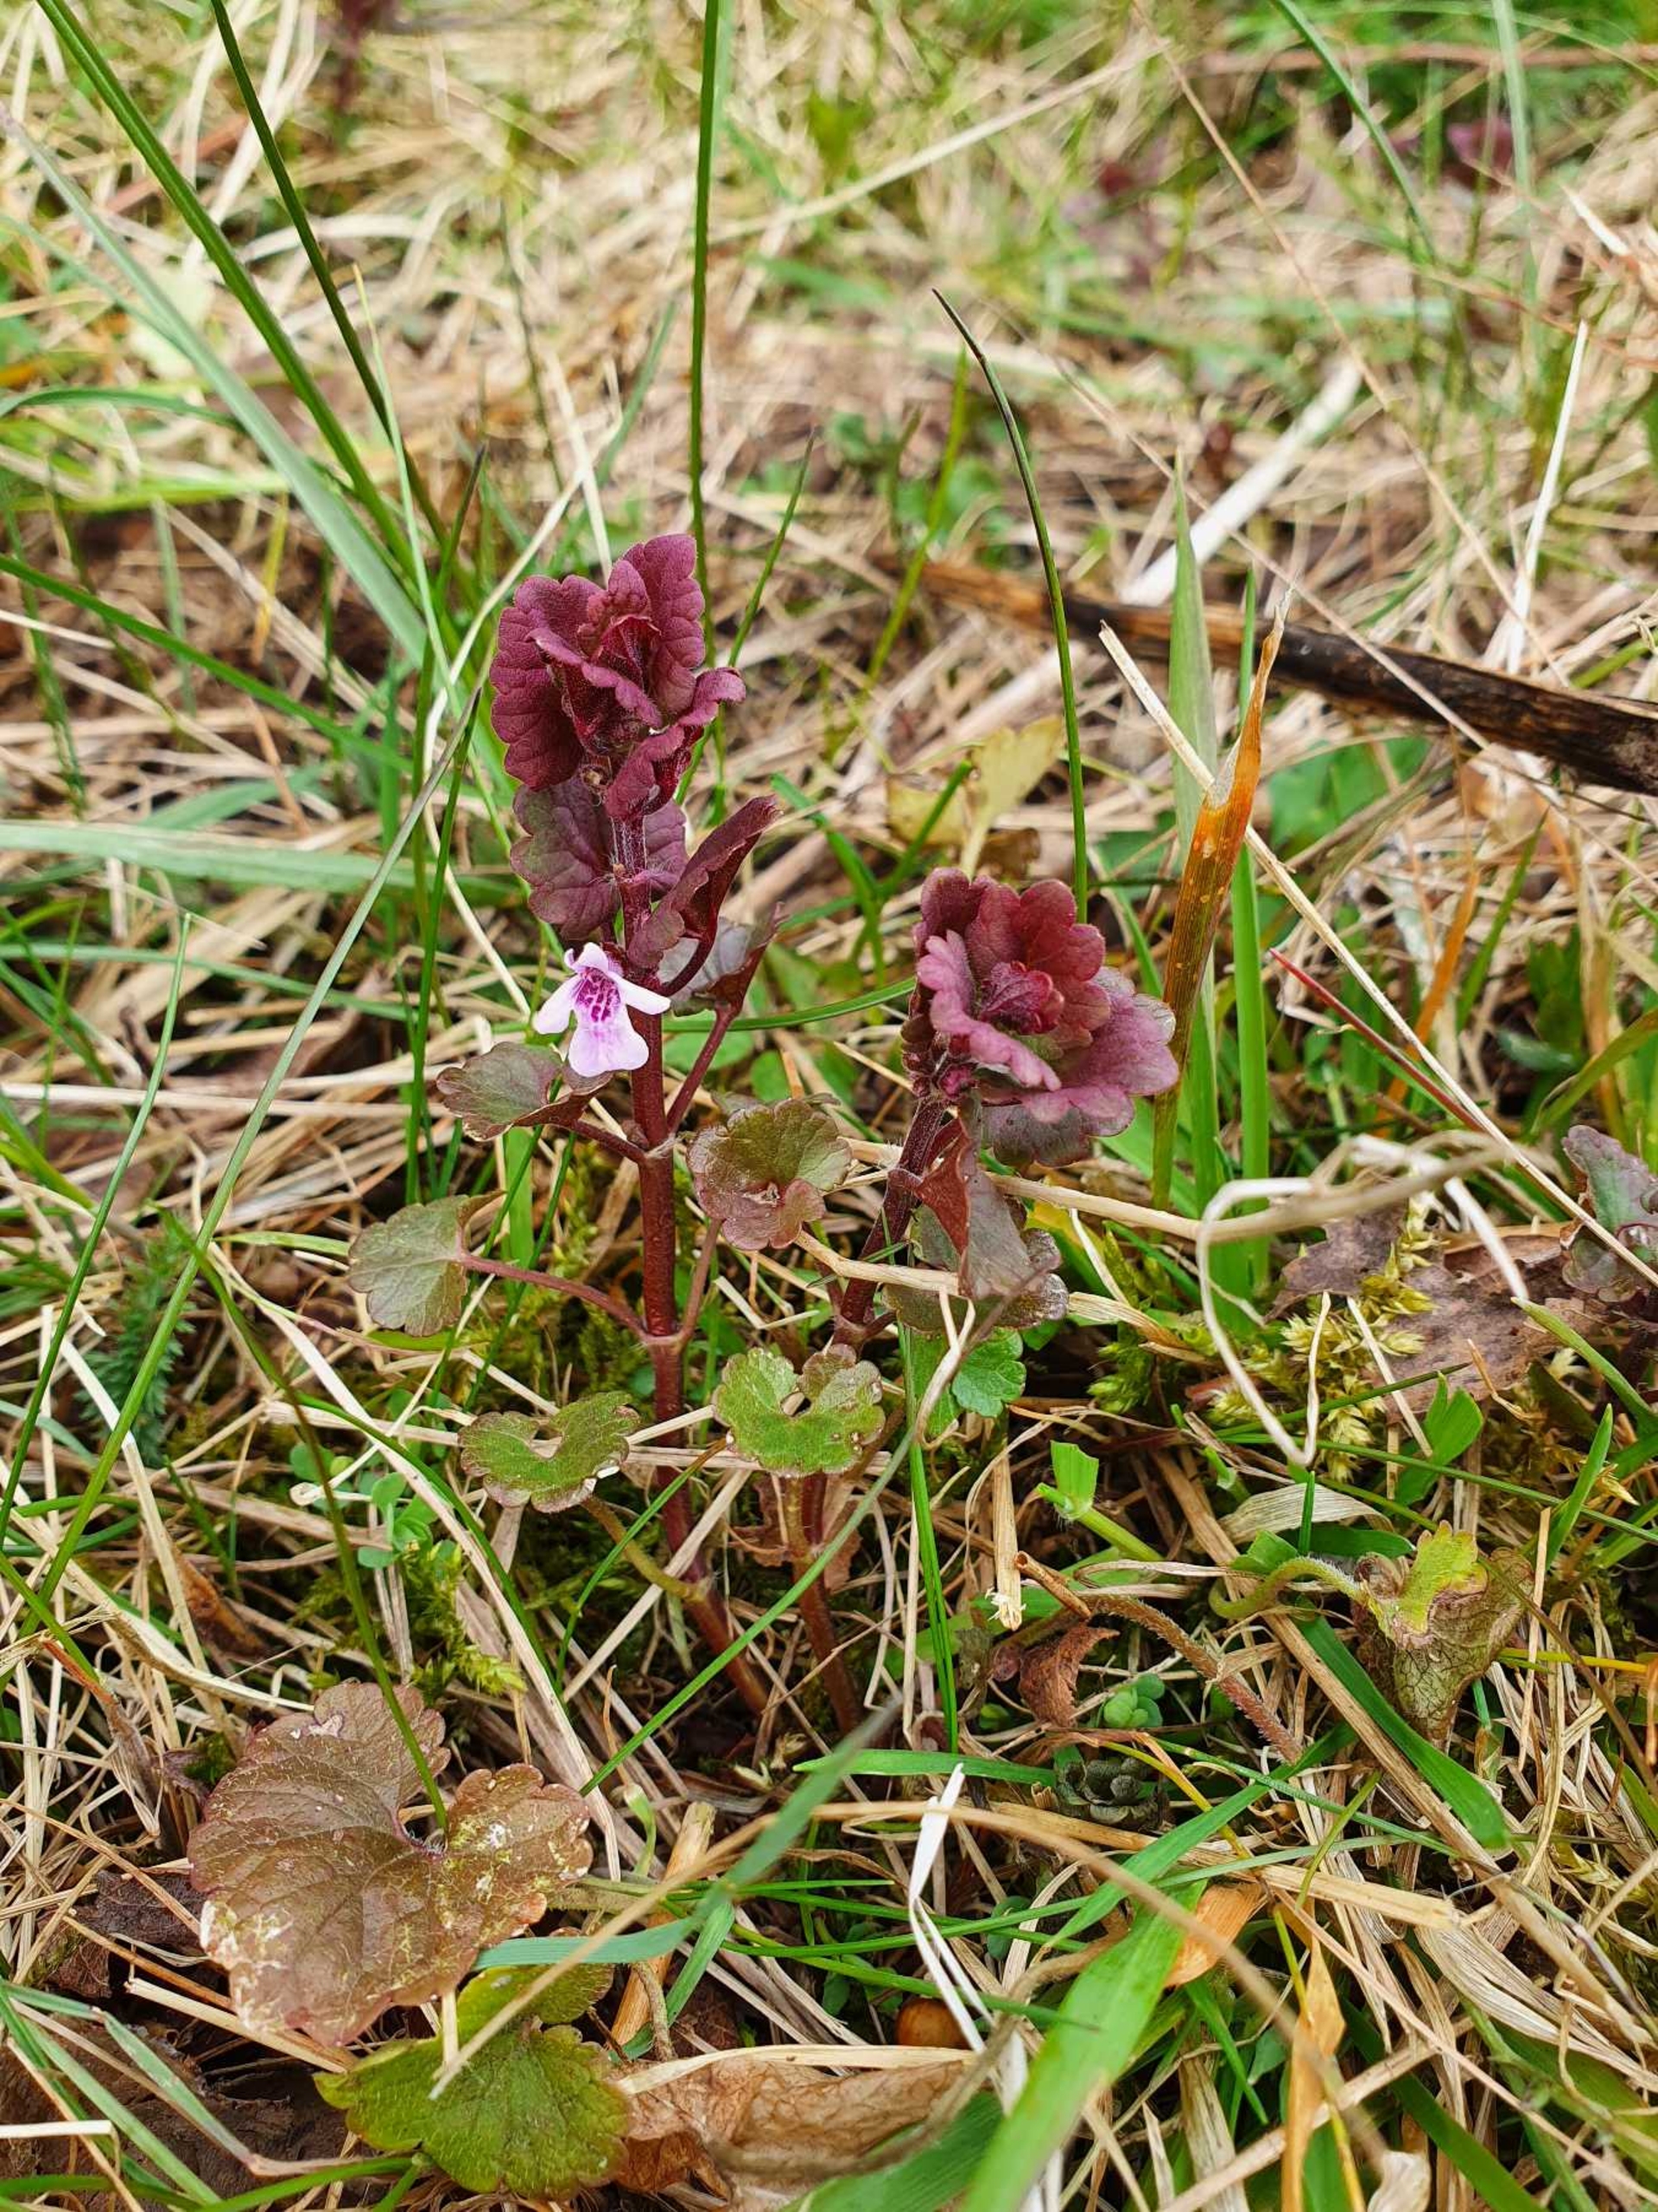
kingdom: Plantae
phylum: Tracheophyta
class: Magnoliopsida
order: Lamiales
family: Lamiaceae
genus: Glechoma
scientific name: Glechoma hederacea
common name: Korsknap
